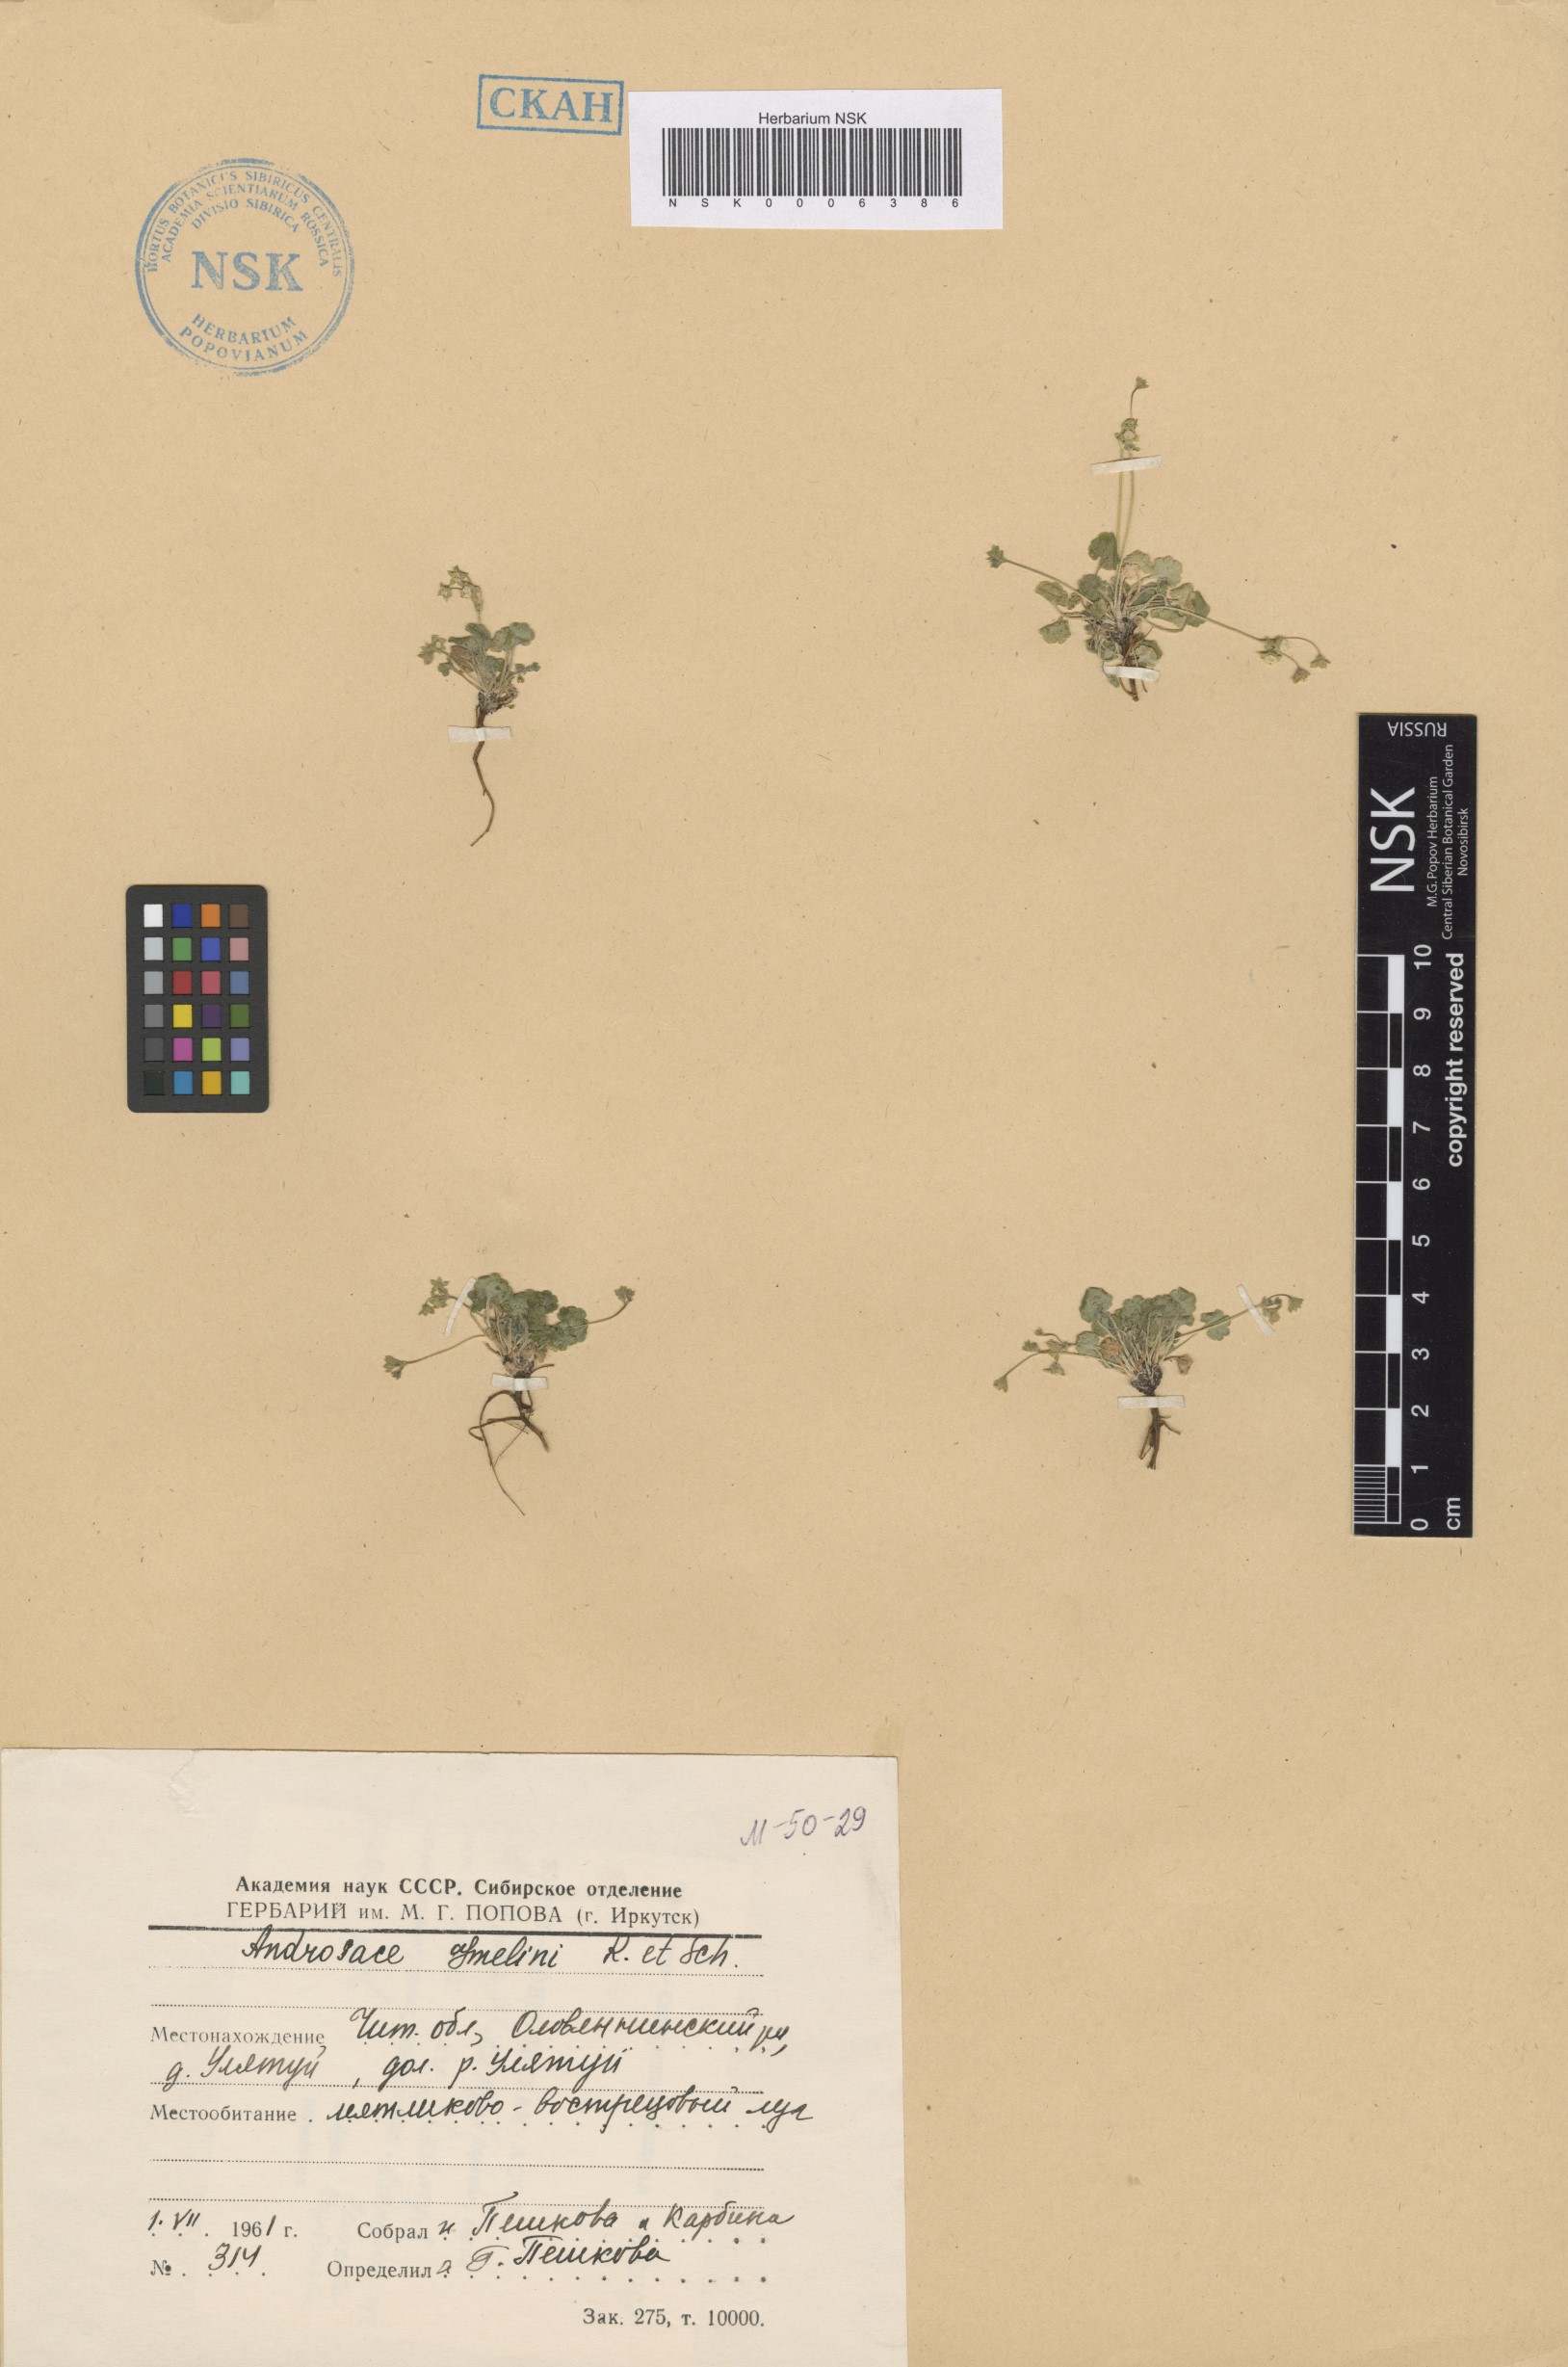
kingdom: Plantae
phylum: Tracheophyta
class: Magnoliopsida
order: Ericales
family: Primulaceae
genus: Androsace
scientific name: Androsace gmelinii
